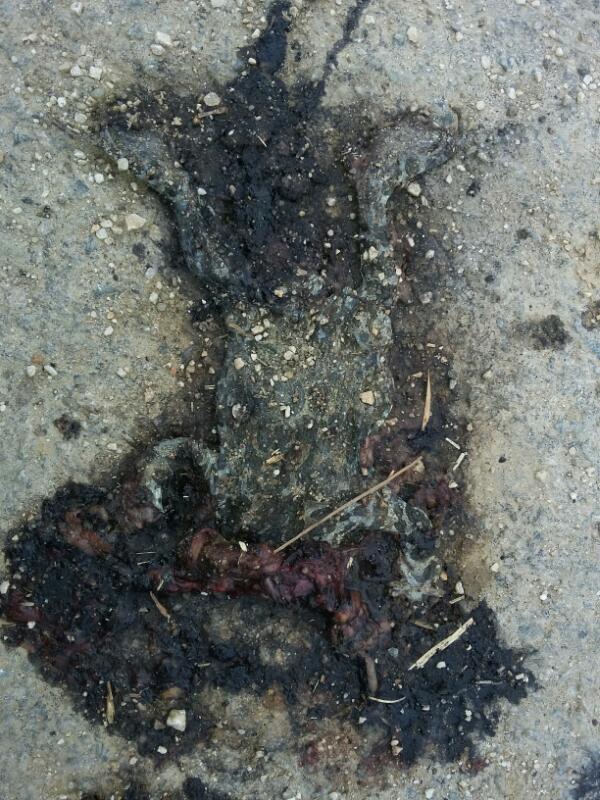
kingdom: Animalia
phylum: Chordata
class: Amphibia
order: Anura
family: Bufonidae
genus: Bufotes
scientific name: Bufotes viridis
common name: European green toad
